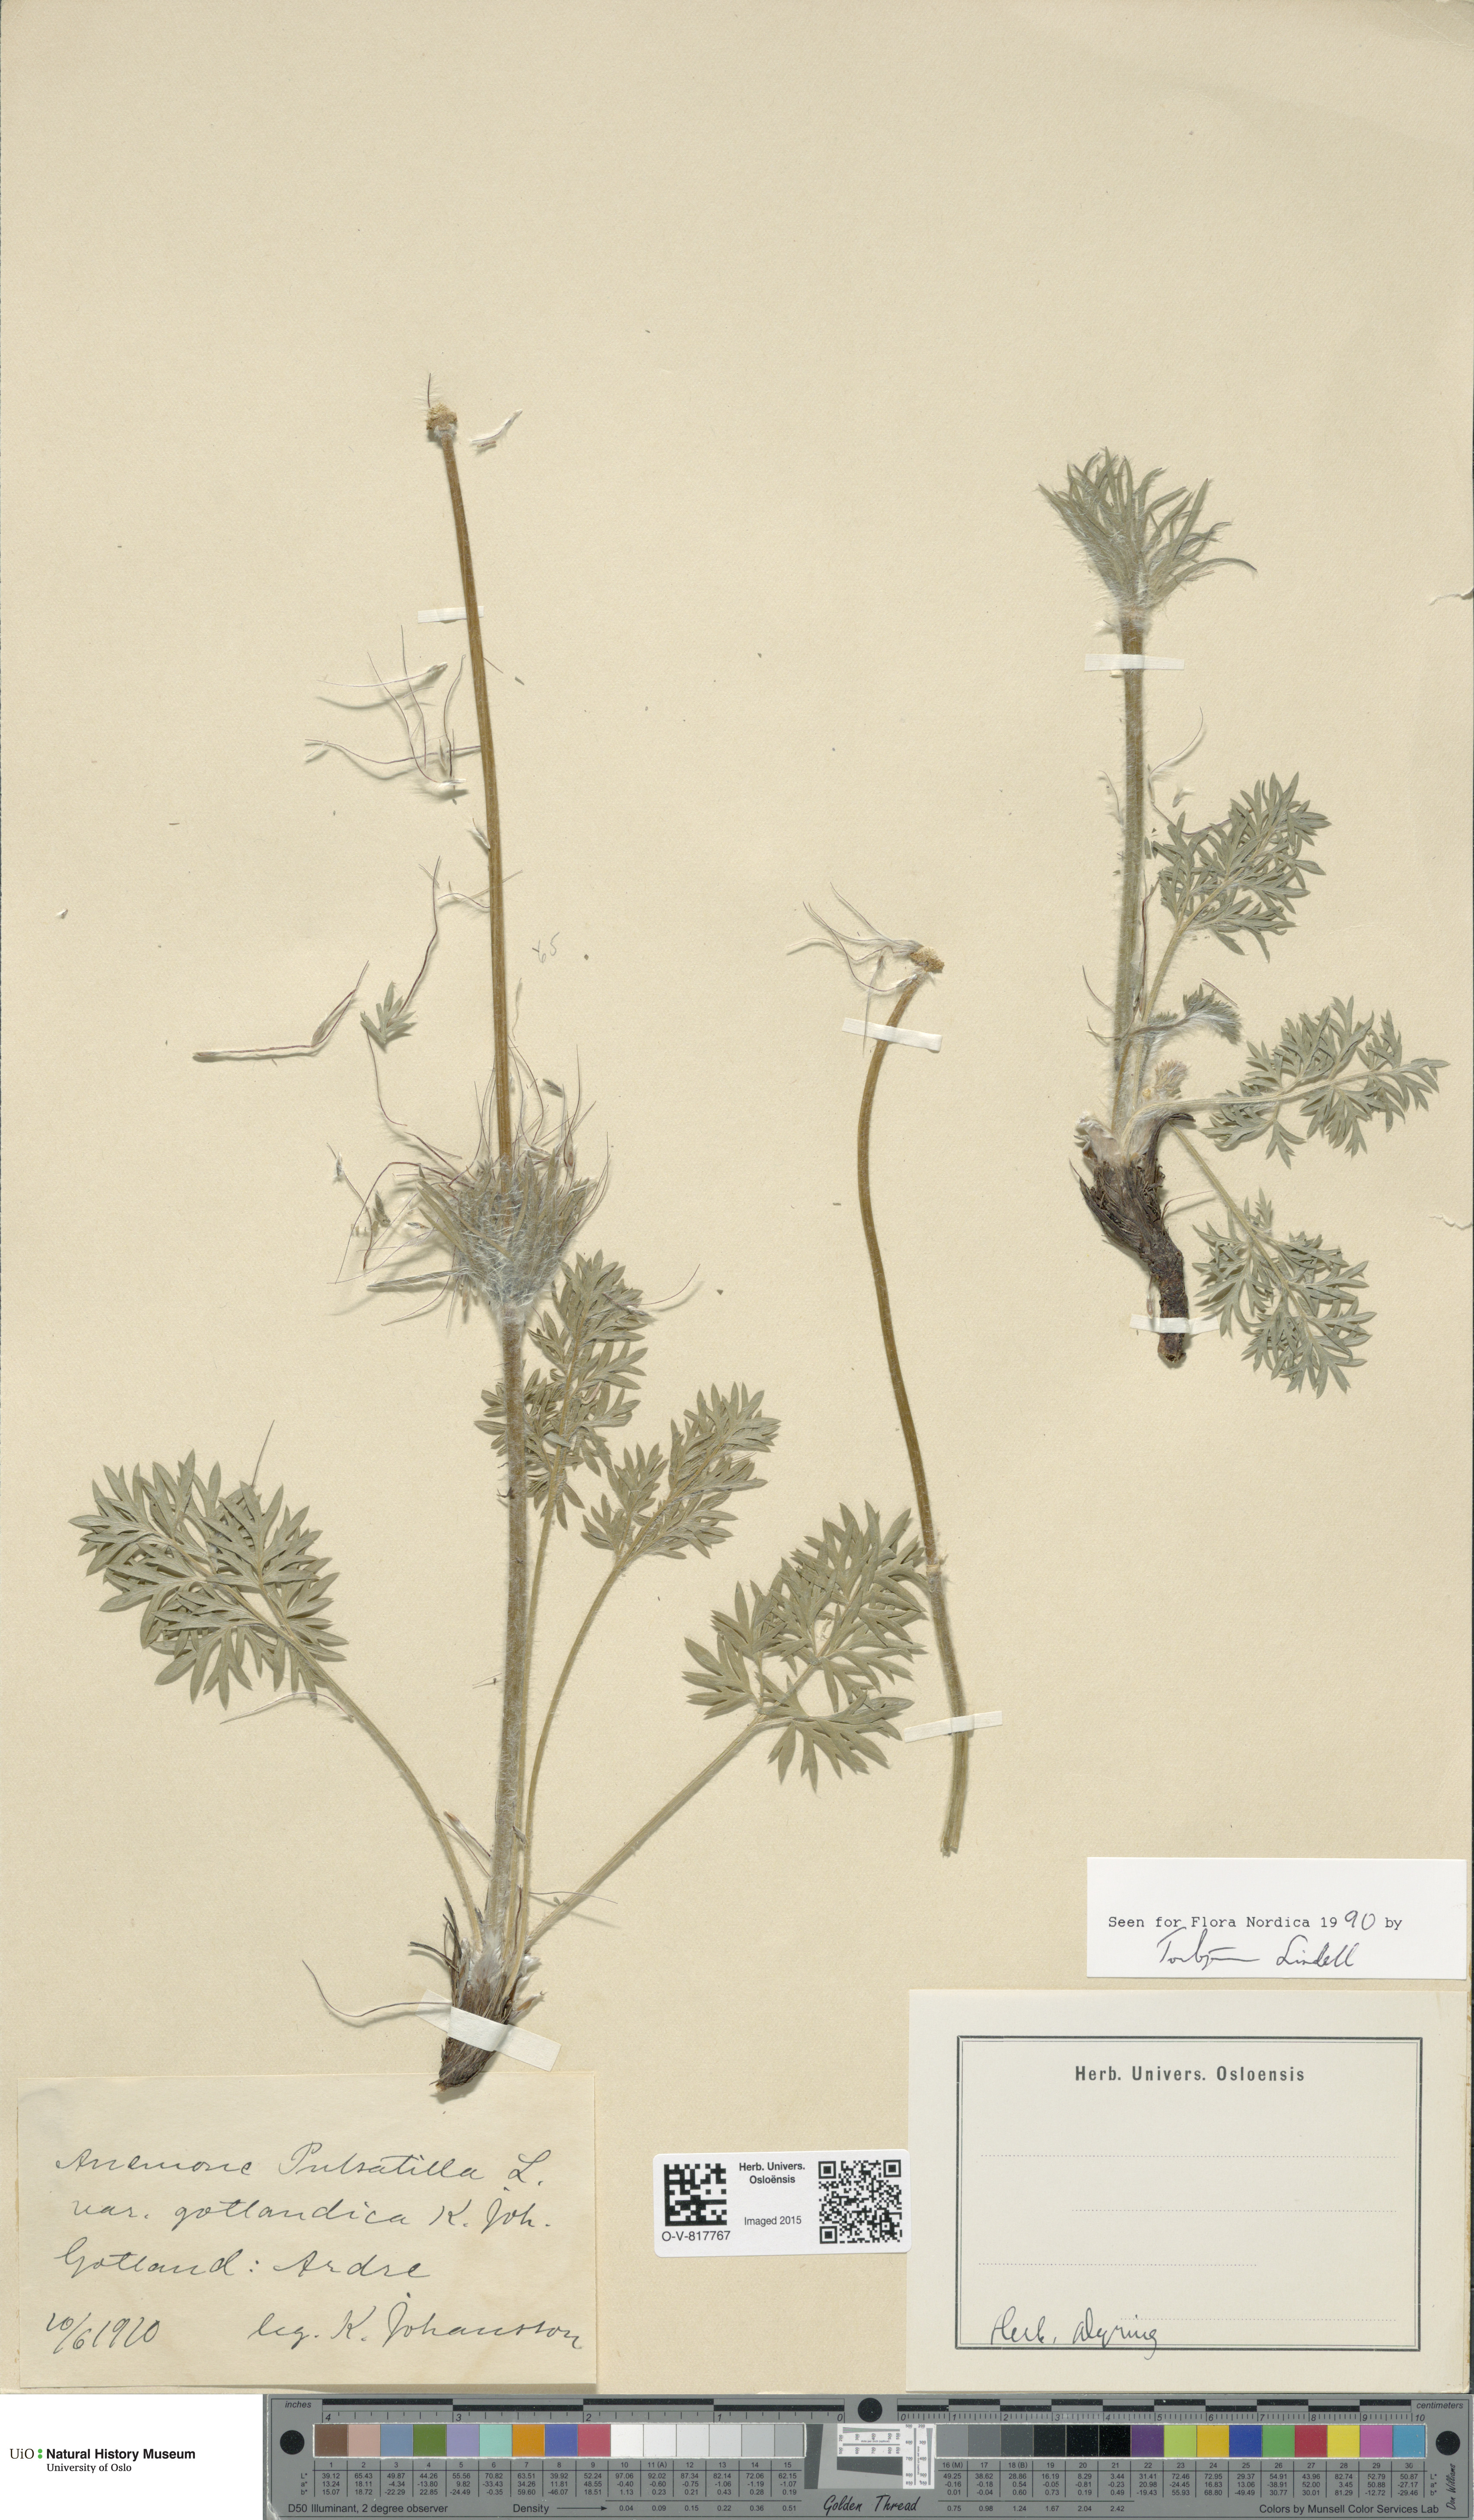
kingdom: Plantae
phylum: Tracheophyta
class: Magnoliopsida
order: Ranunculales
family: Ranunculaceae
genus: Pulsatilla
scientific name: Pulsatilla vulgaris
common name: Pasqueflower
